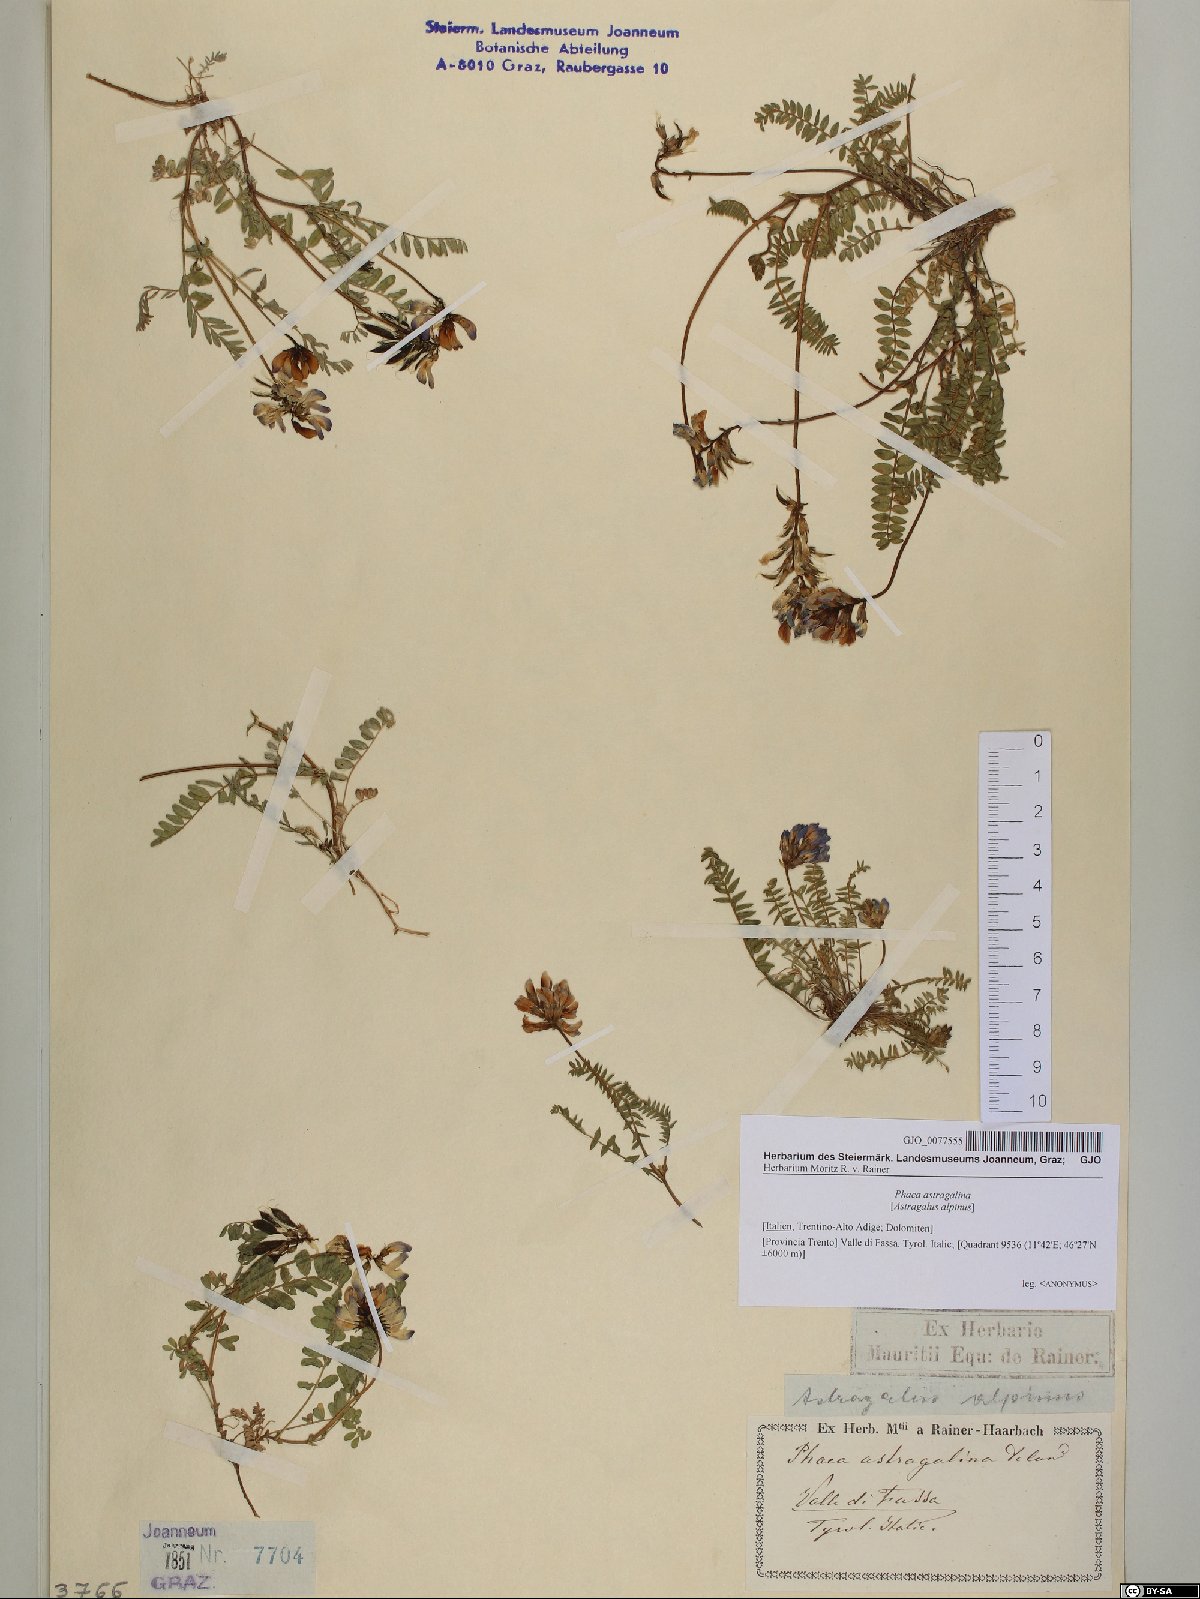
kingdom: Plantae
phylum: Tracheophyta
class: Magnoliopsida
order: Fabales
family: Fabaceae
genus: Astragalus
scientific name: Astragalus alpinus
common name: Alpine milk-vetch
